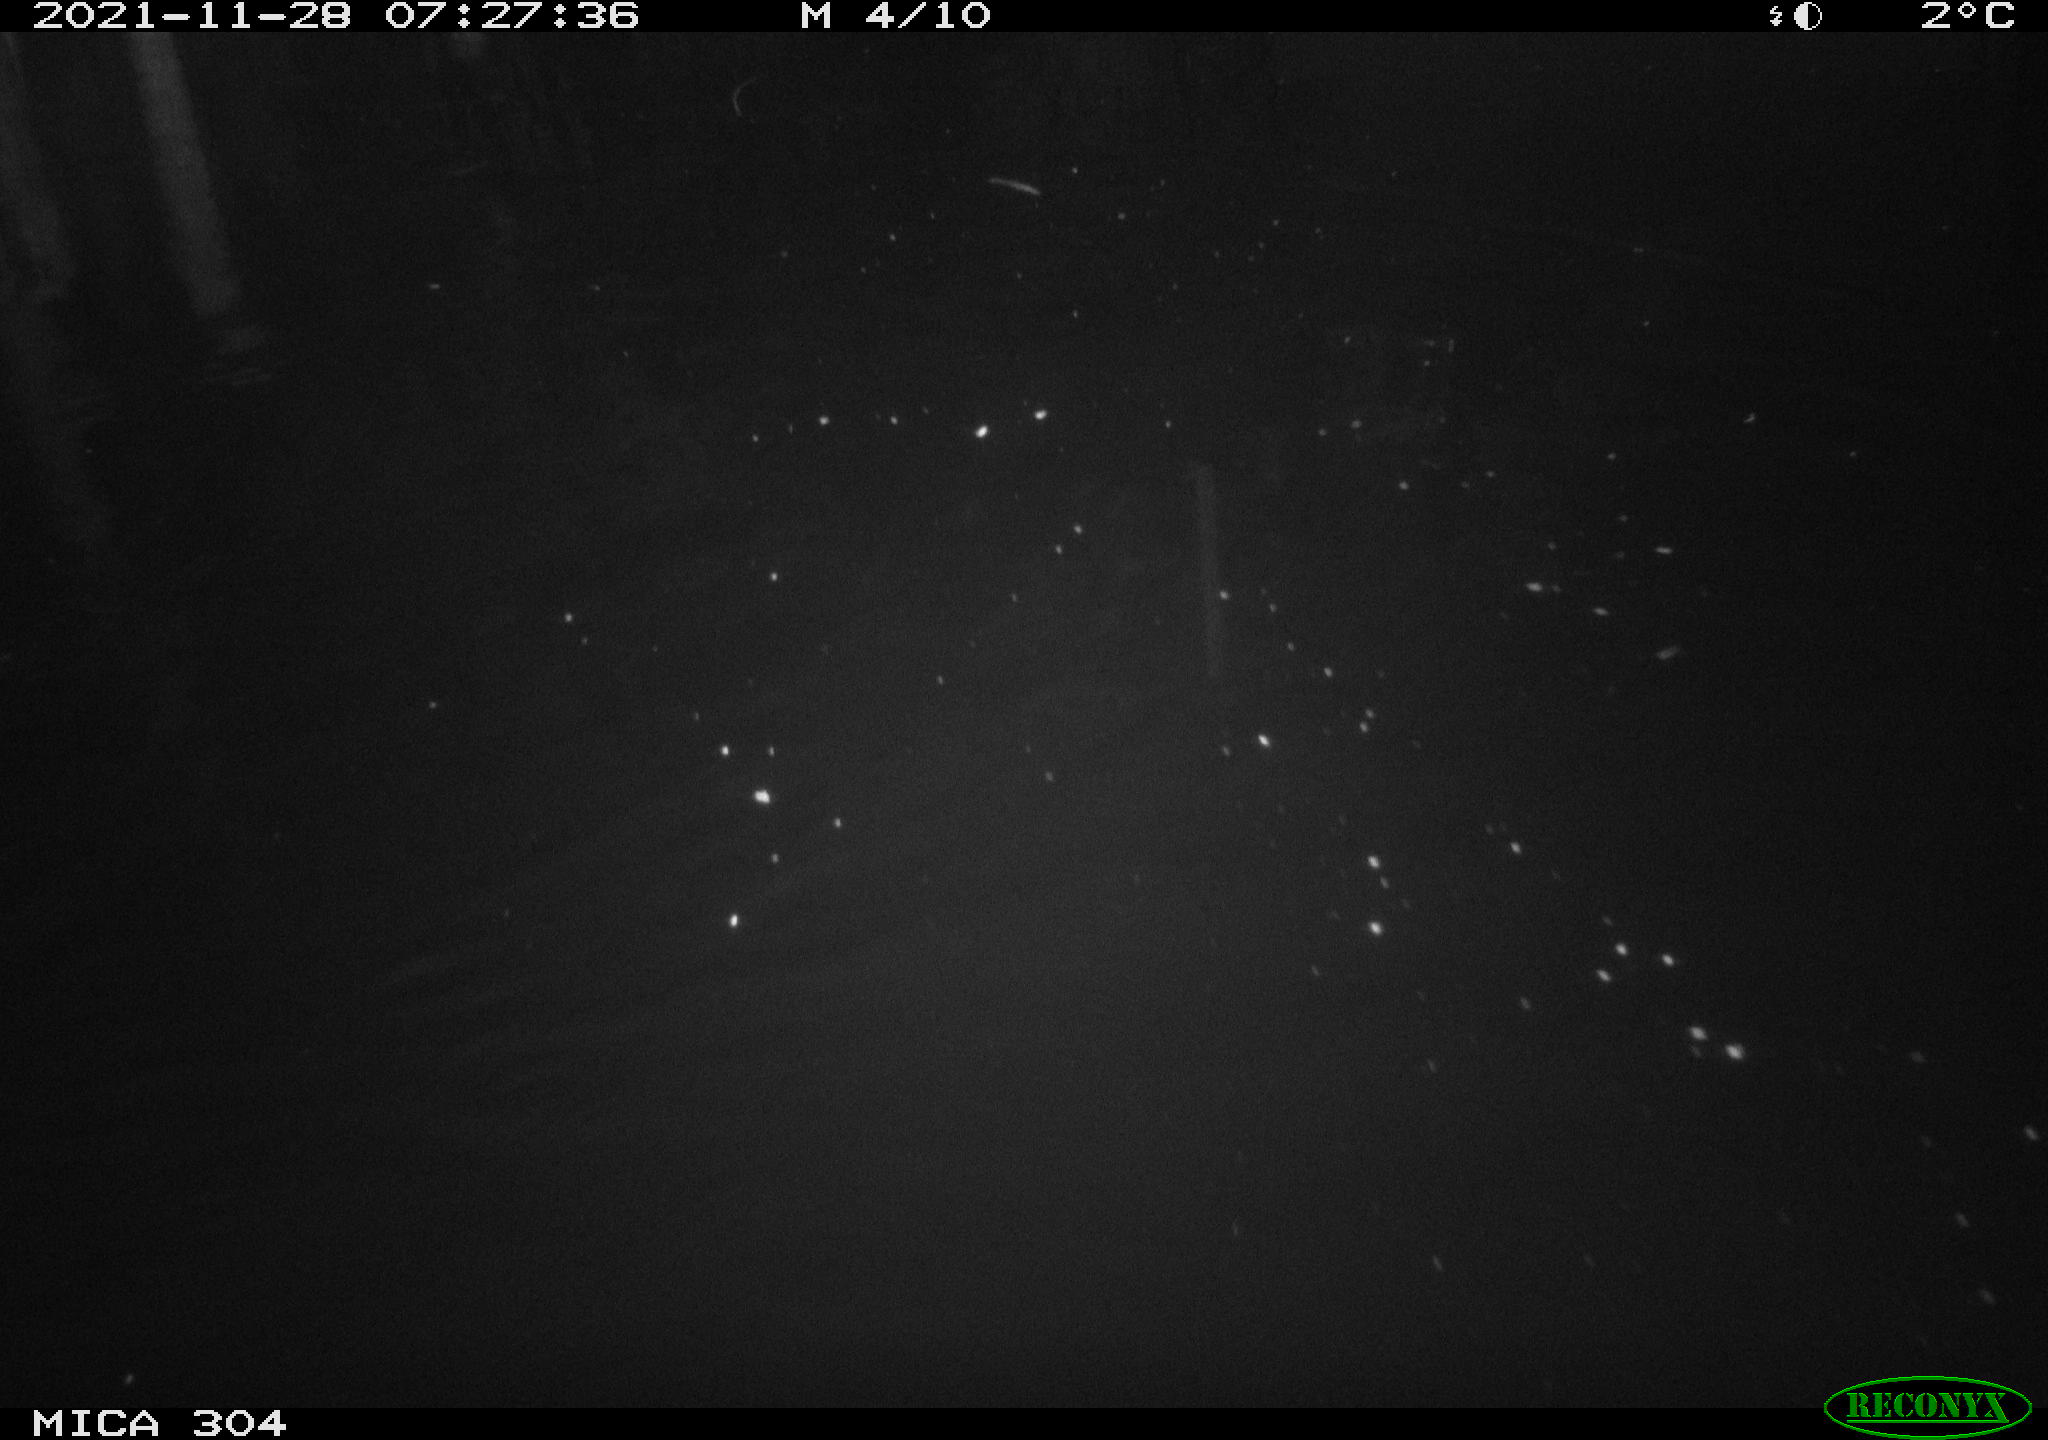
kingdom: Animalia
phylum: Chordata
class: Mammalia
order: Rodentia
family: Muridae
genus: Rattus
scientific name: Rattus norvegicus
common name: Brown rat
